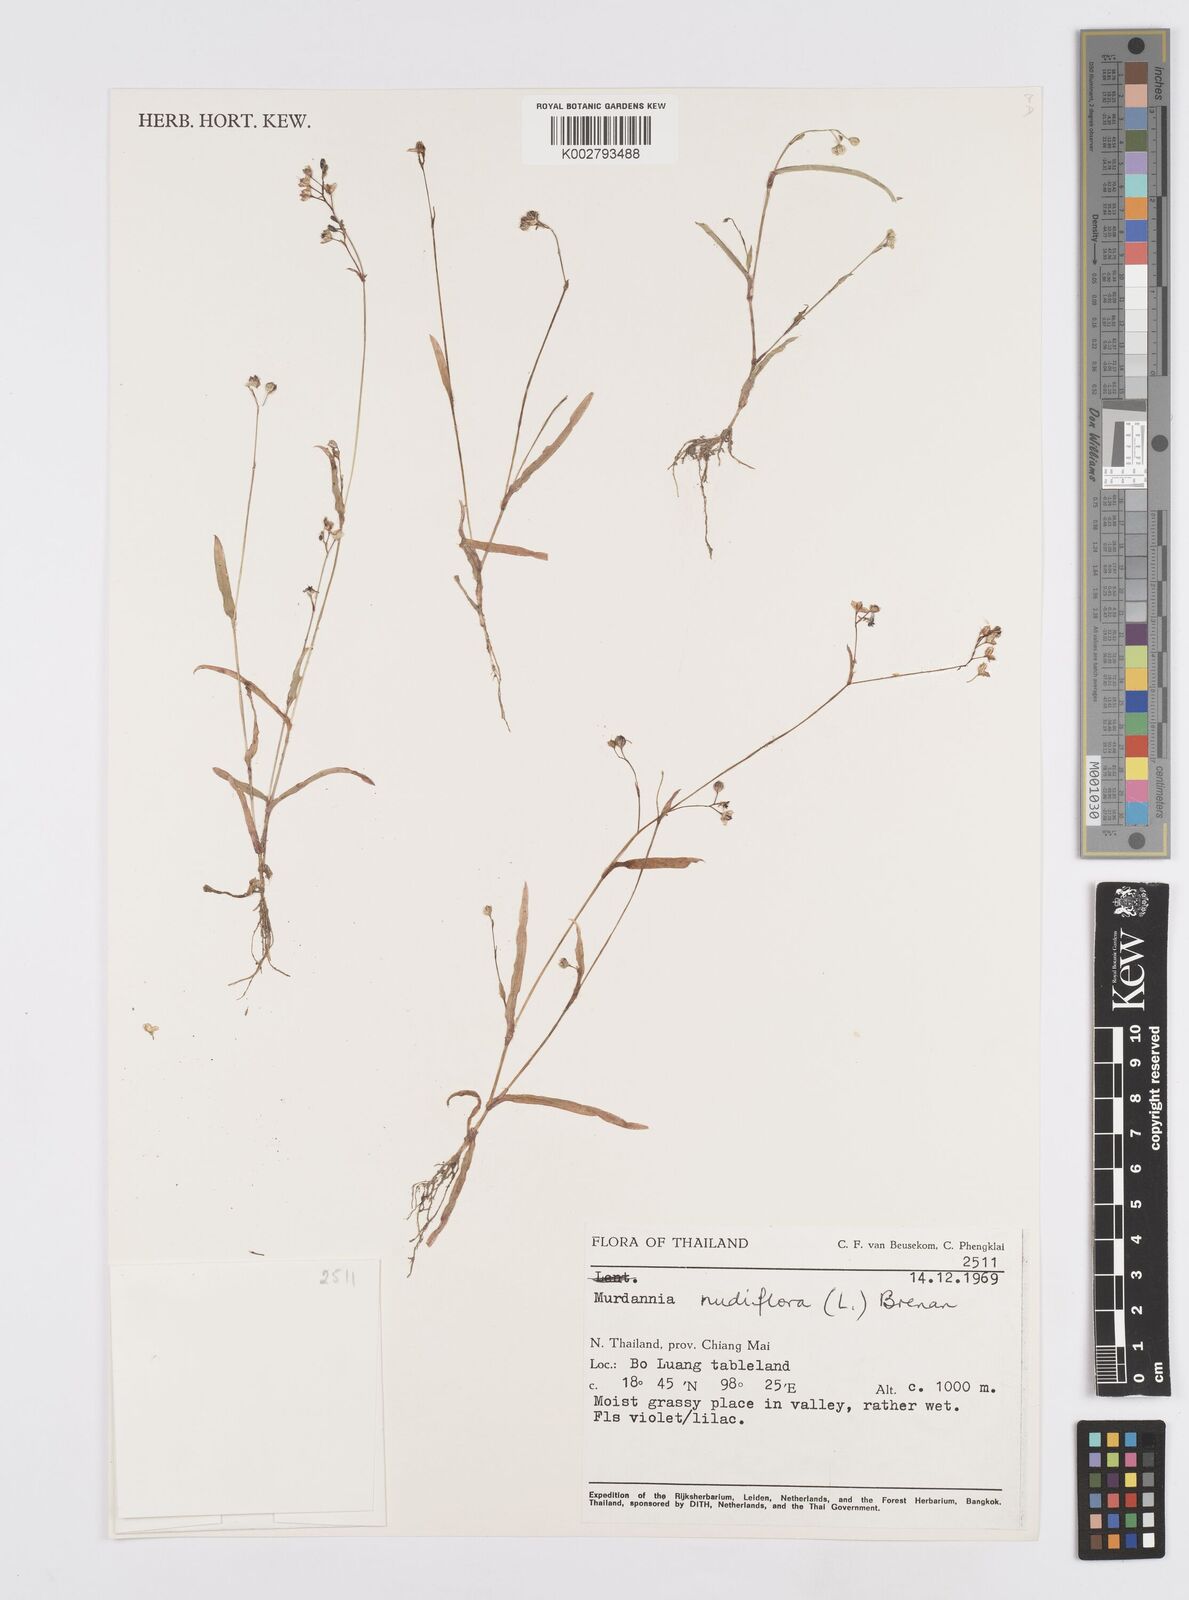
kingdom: Plantae
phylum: Tracheophyta
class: Liliopsida
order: Commelinales
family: Commelinaceae
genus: Murdannia
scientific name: Murdannia nudiflora
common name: Nakedstem dewflower
